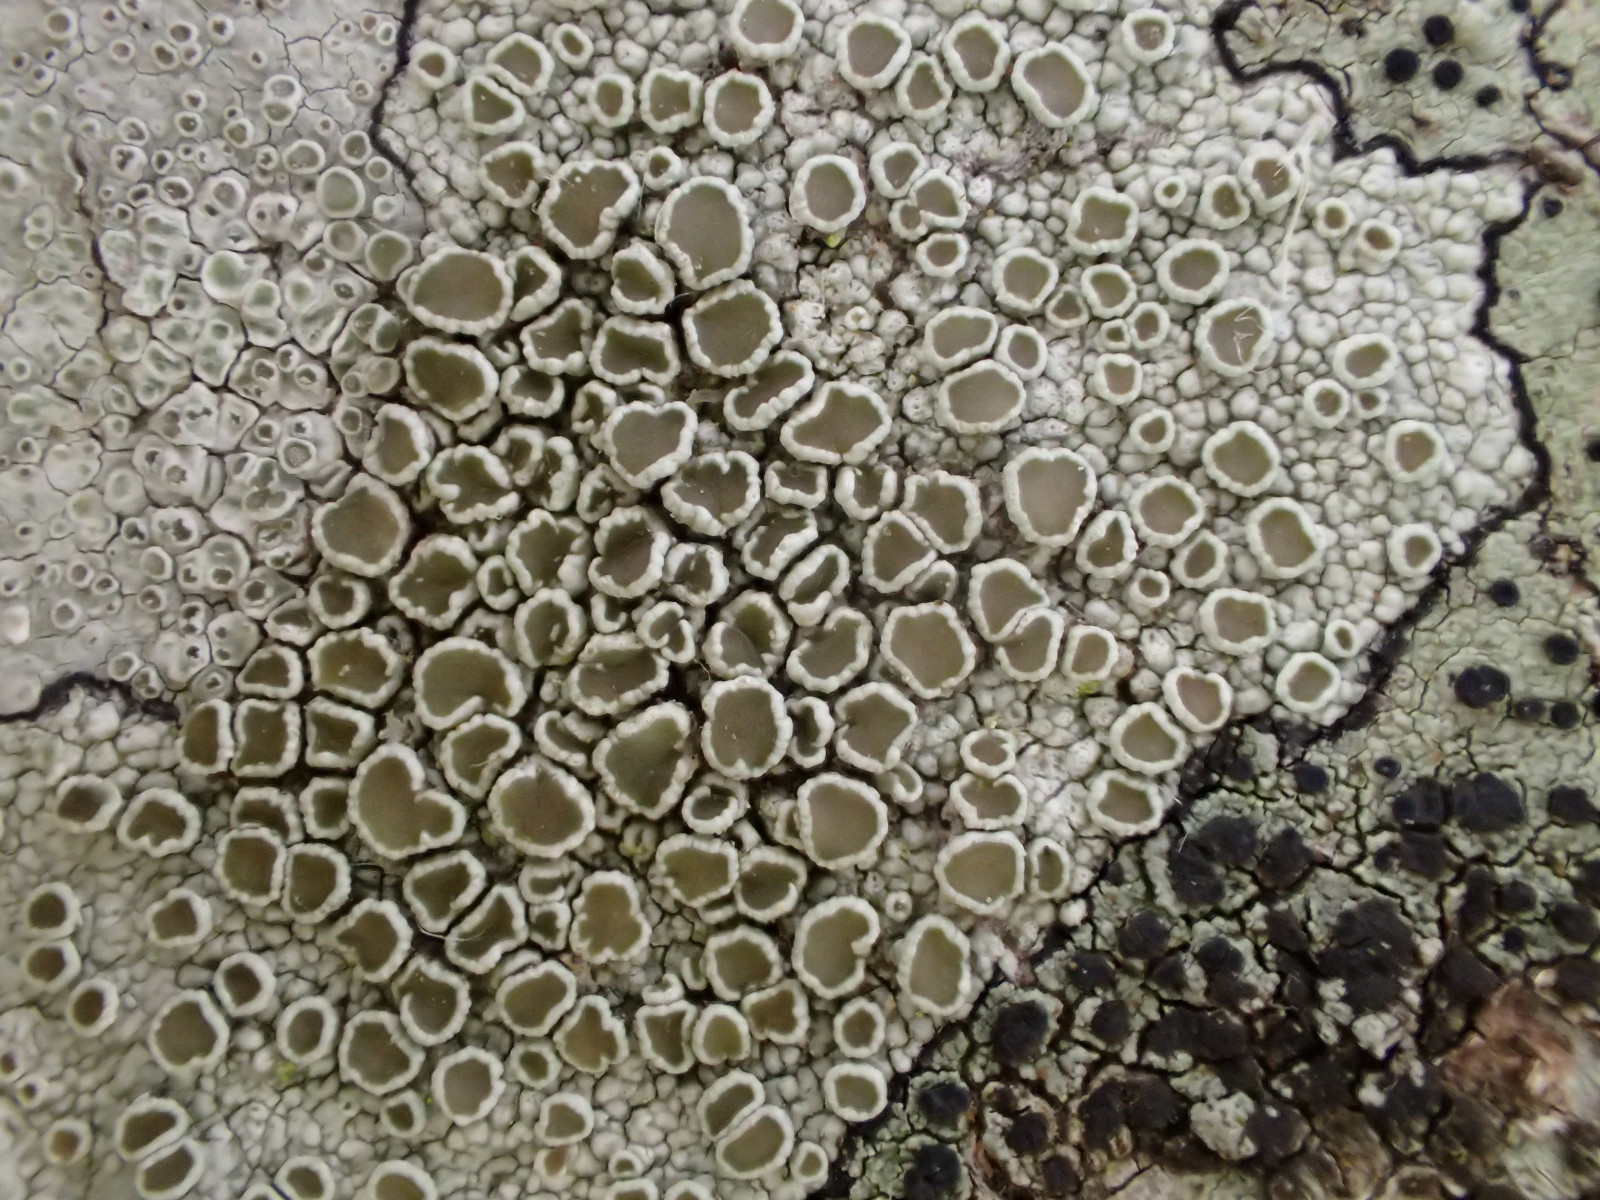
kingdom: Fungi
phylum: Ascomycota
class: Lecanoromycetes
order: Lecanorales
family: Lecanoraceae
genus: Lecanora
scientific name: Lecanora chlarotera
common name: brun kantskivelav
